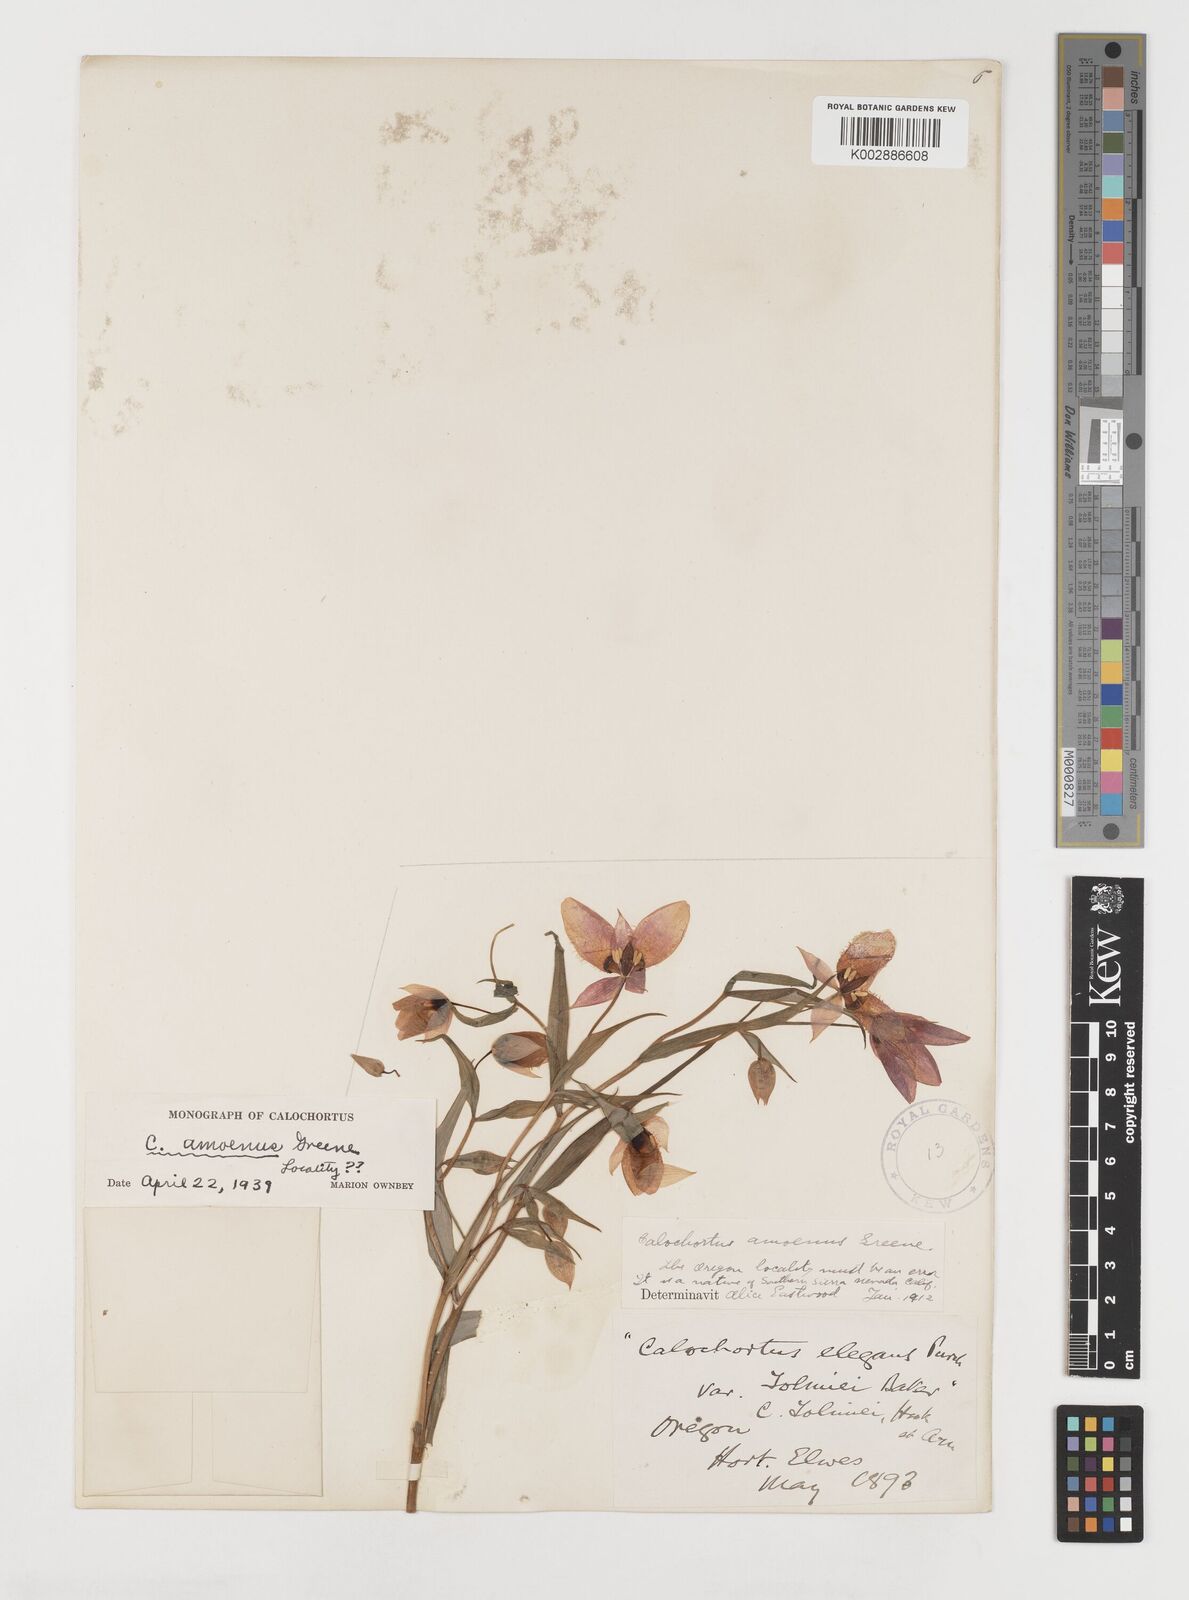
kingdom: Plantae
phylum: Tracheophyta
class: Liliopsida
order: Liliales
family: Liliaceae
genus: Calochortus
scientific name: Calochortus amoenus
